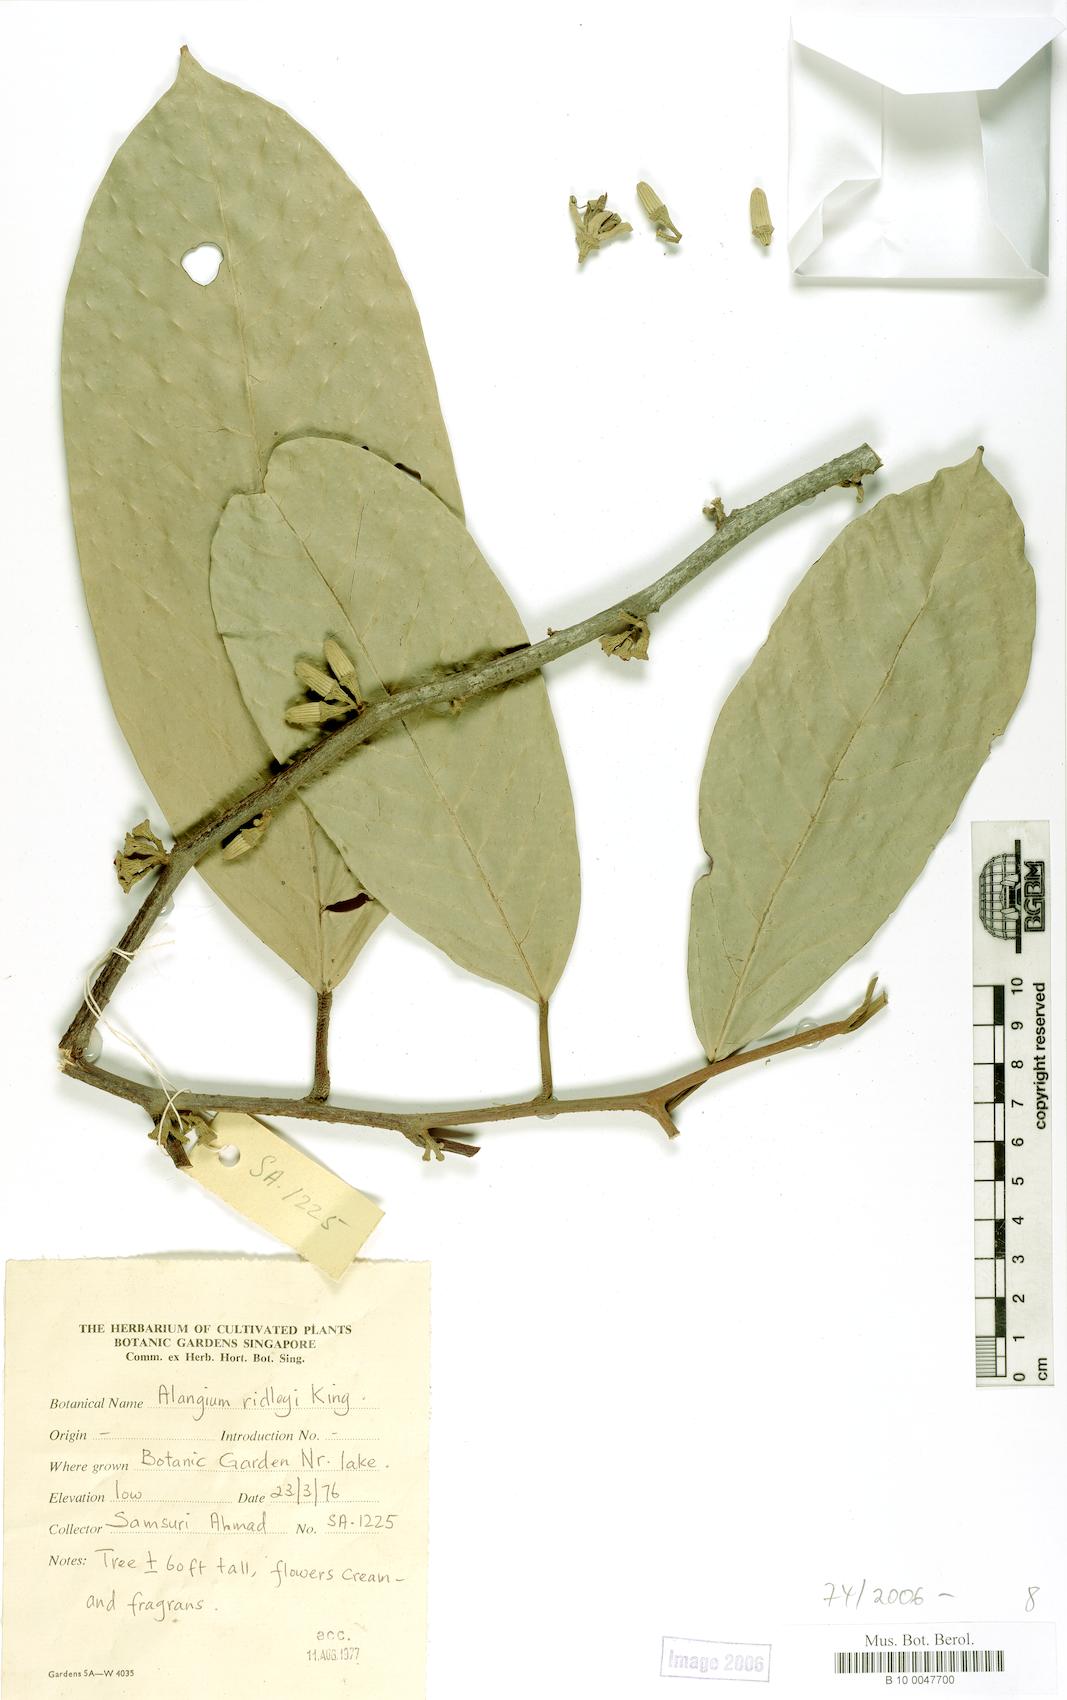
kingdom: Plantae
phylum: Tracheophyta
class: Magnoliopsida
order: Cornales
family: Cornaceae
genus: Alangium
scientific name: Alangium ridleyi
